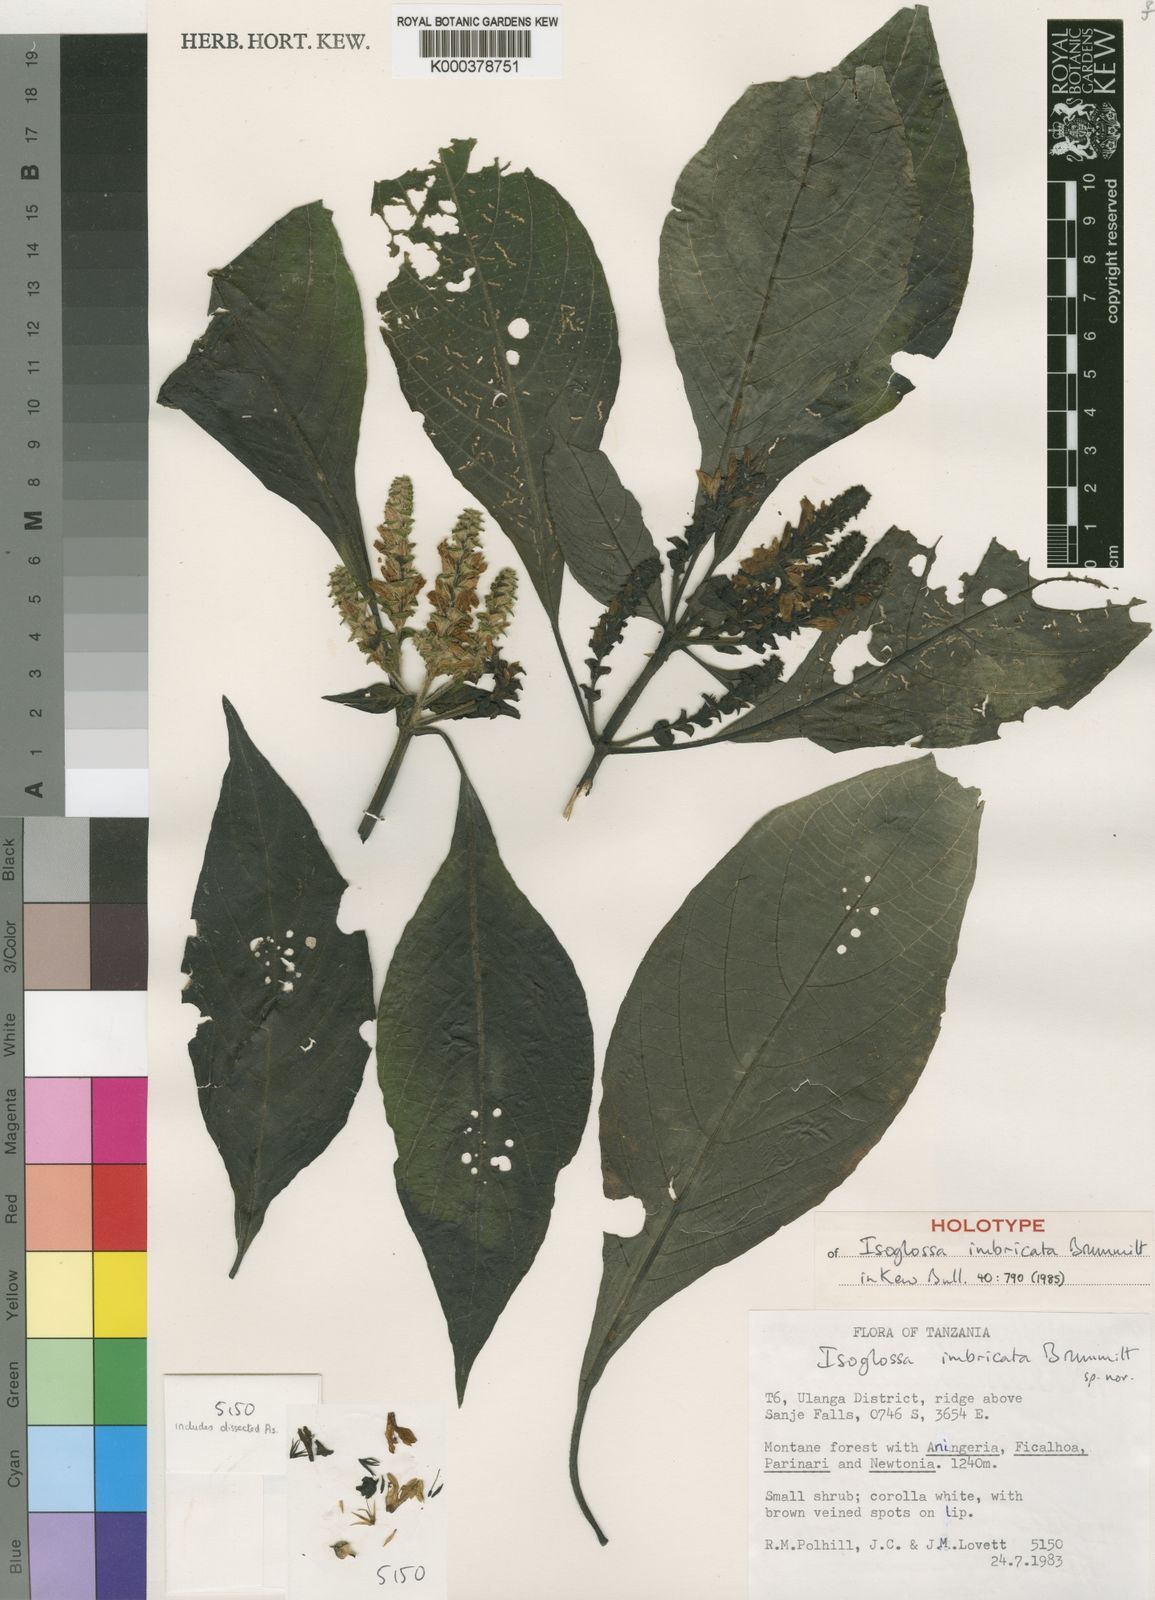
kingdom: Plantae
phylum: Tracheophyta
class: Magnoliopsida
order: Lamiales
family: Acanthaceae
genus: Isoglossa
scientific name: Isoglossa bracteosa
